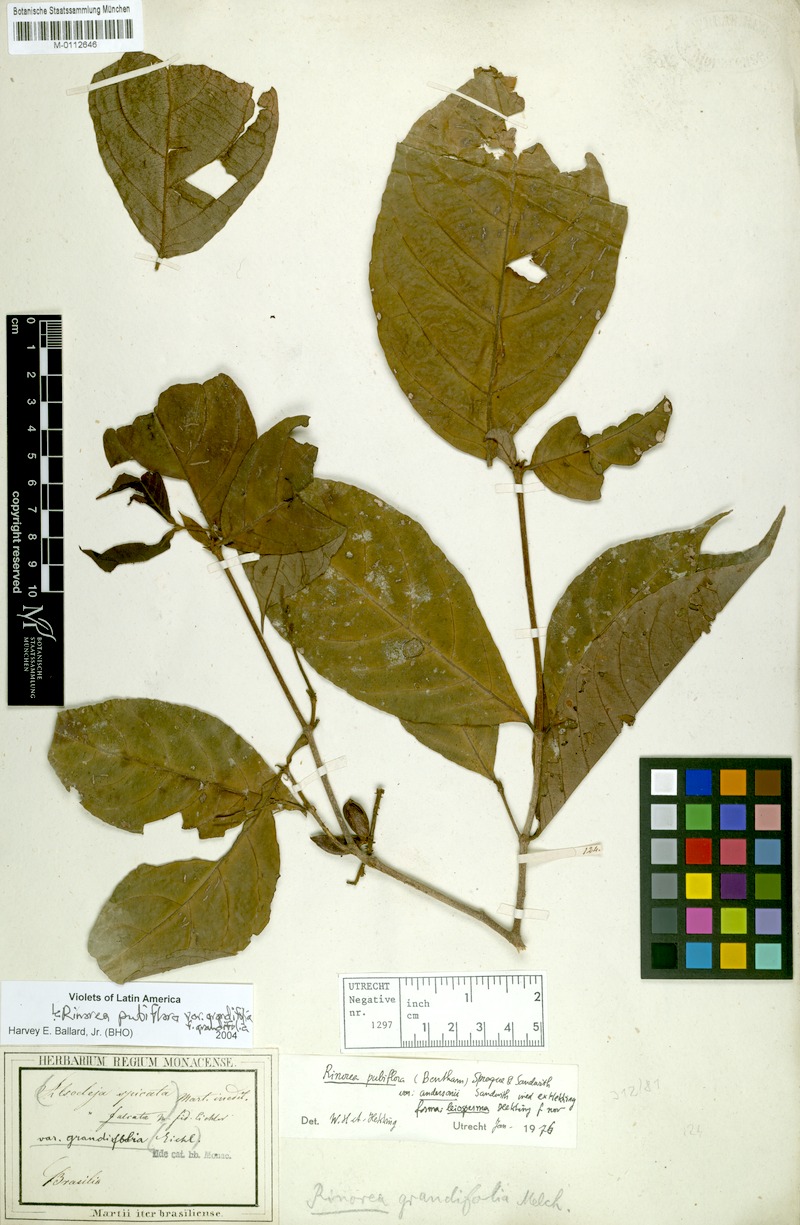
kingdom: Plantae
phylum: Tracheophyta
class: Magnoliopsida
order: Malpighiales
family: Violaceae
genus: Rinorea
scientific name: Rinorea pubiflora
